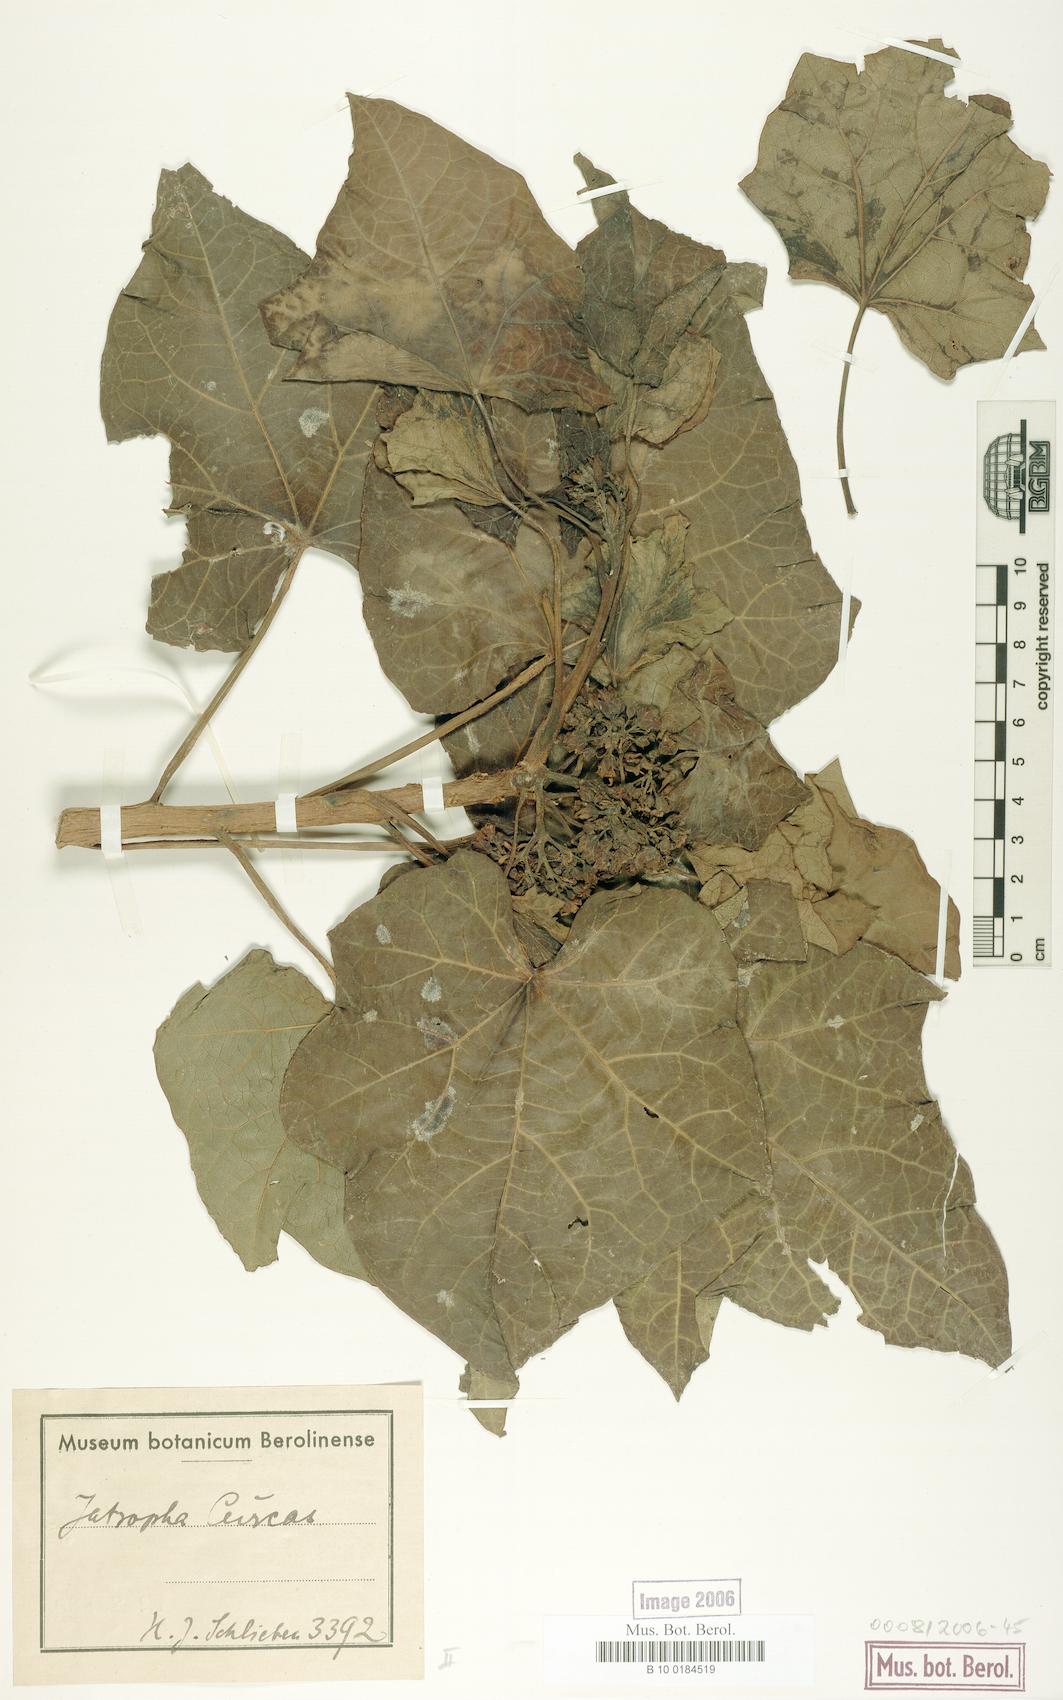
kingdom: Plantae
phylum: Tracheophyta
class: Magnoliopsida
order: Malpighiales
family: Euphorbiaceae
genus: Jatropha
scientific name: Jatropha curcas
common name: Barbados nut
